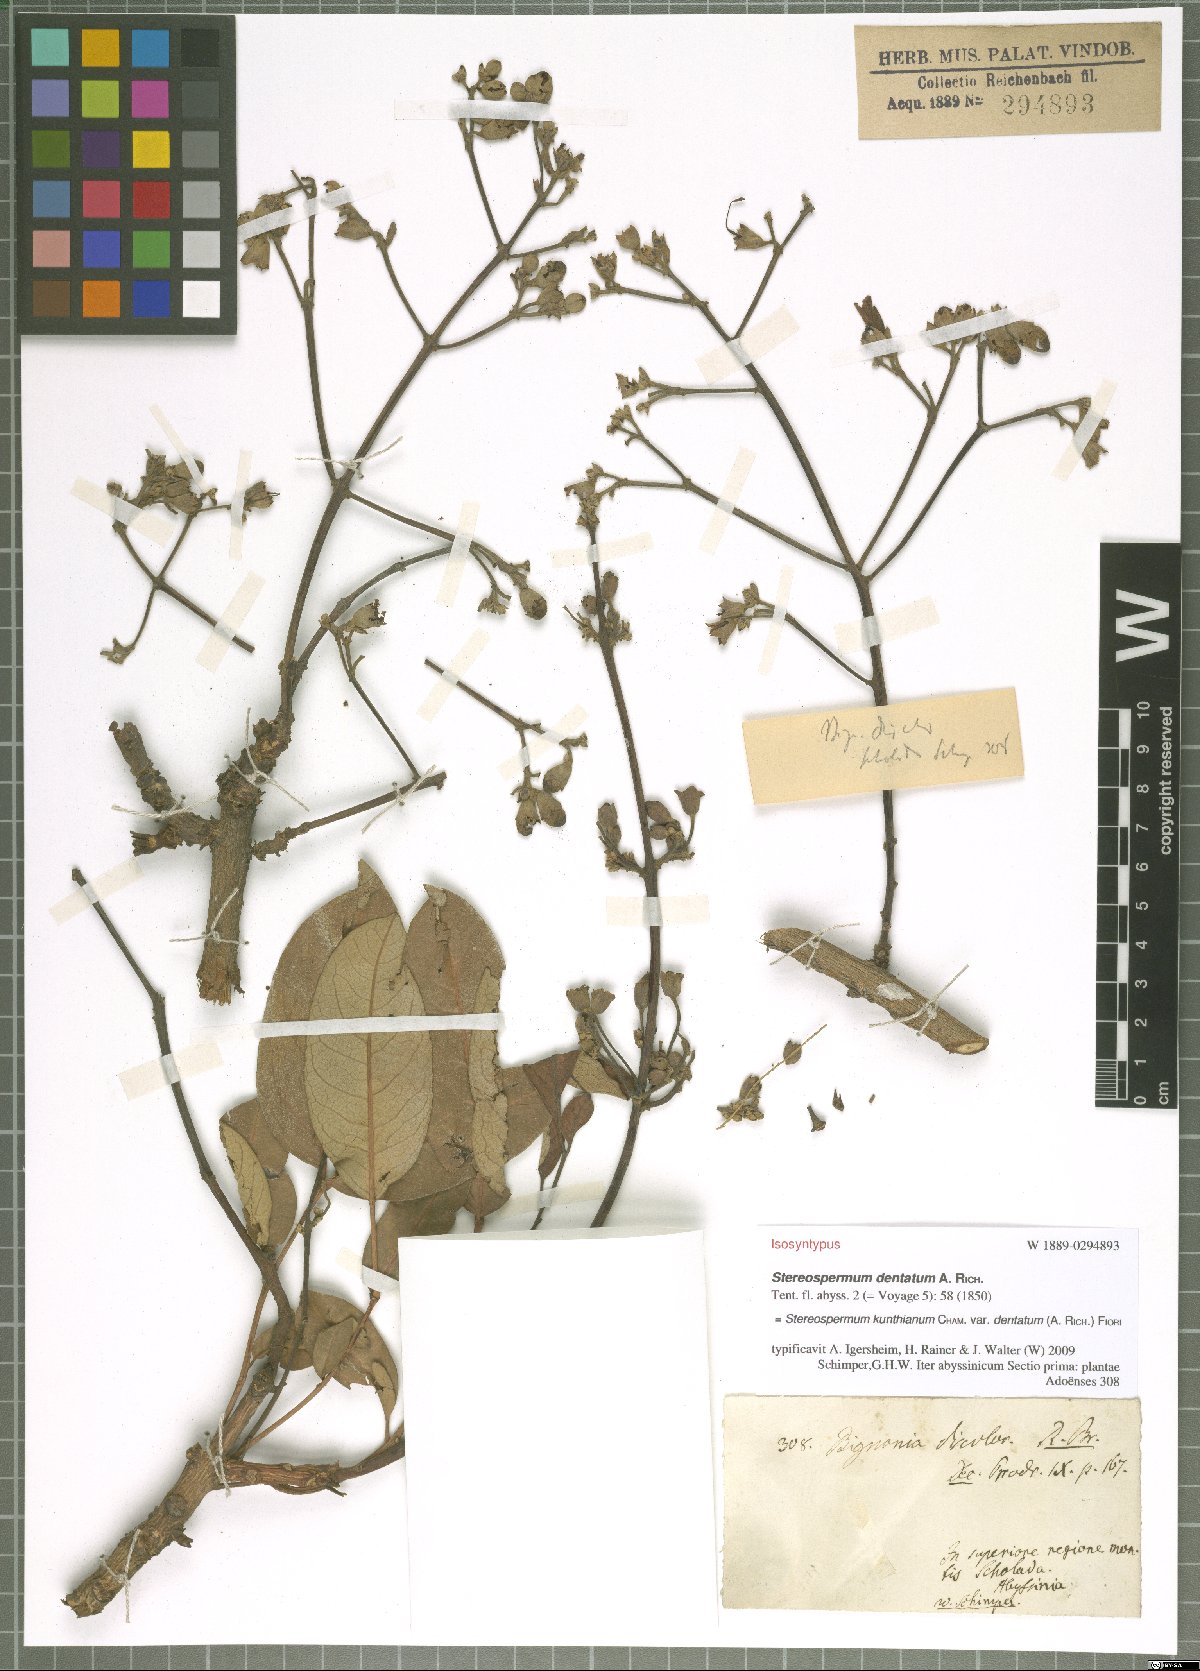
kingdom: Plantae
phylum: Tracheophyta
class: Magnoliopsida
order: Lamiales
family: Bignoniaceae
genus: Stereospermum
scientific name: Stereospermum kunthianum
